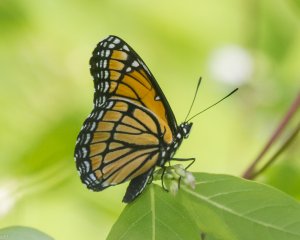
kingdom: Animalia
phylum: Arthropoda
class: Insecta
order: Lepidoptera
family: Nymphalidae
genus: Limenitis
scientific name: Limenitis archippus
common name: Viceroy
